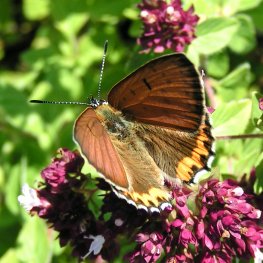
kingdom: Animalia
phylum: Arthropoda
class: Insecta
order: Lepidoptera
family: Sesiidae
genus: Sesia
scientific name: Sesia Lycaena hyllus
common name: Bronze Copper
